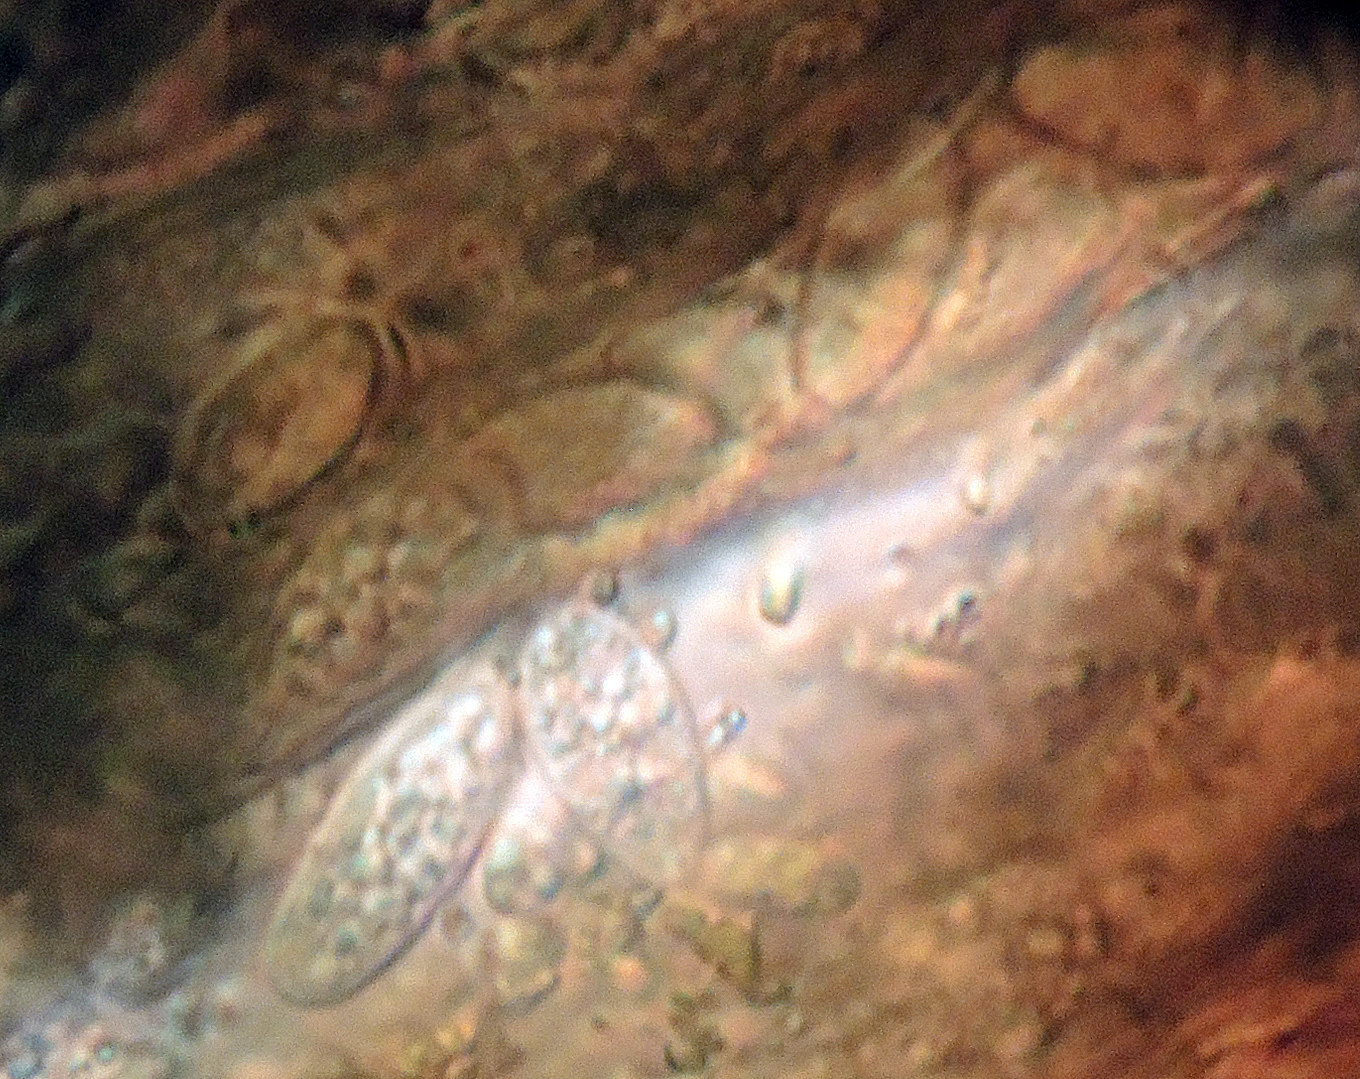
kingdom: Fungi
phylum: Ascomycota
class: Lecanoromycetes
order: Pertusariales
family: Agyriaceae
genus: Agyrium
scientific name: Agyrium rufum
